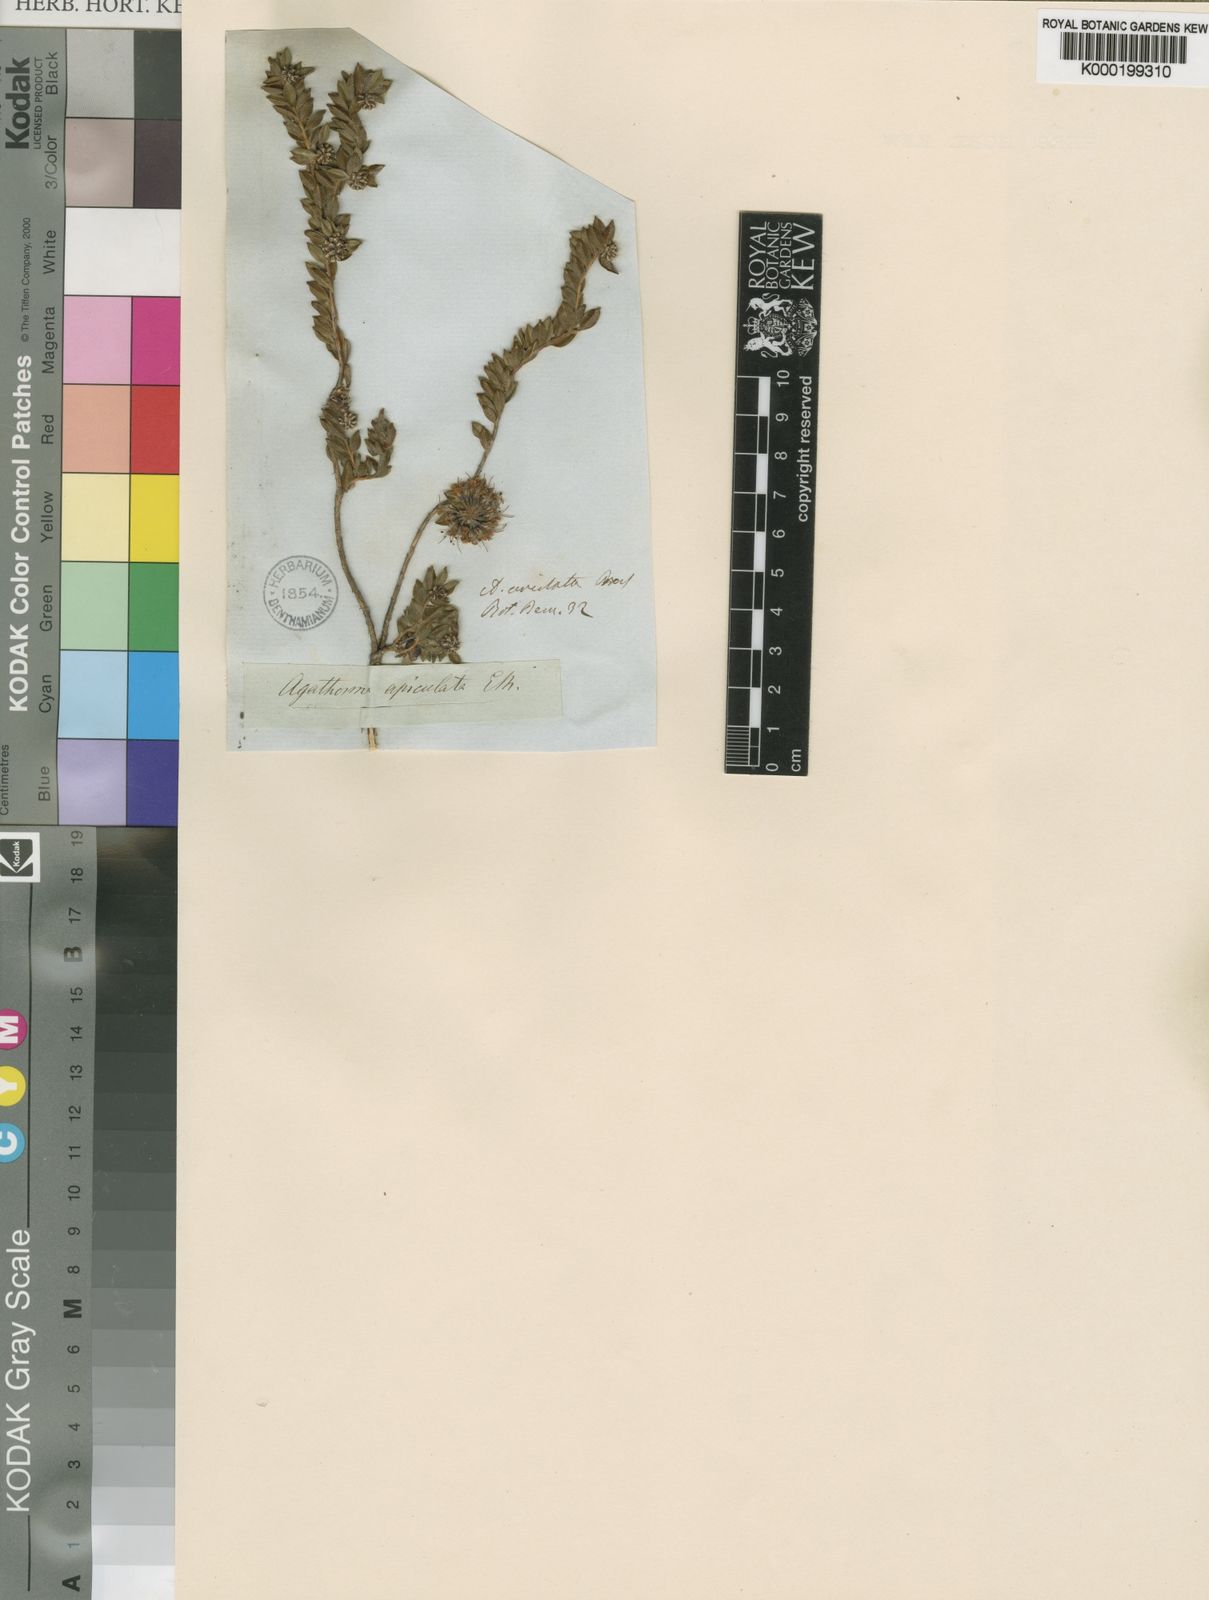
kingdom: Plantae
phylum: Tracheophyta
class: Magnoliopsida
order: Sapindales
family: Rutaceae
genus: Agathosma
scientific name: Agathosma leptospermoides
